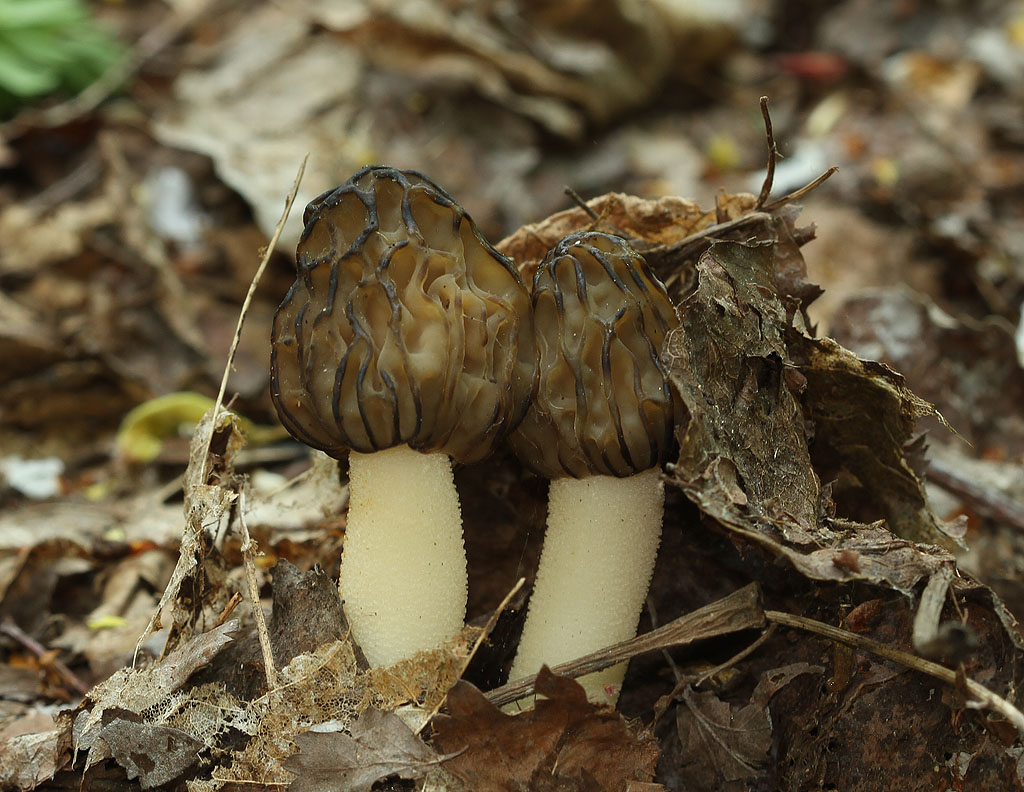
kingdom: Fungi
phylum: Ascomycota
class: Pezizomycetes
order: Pezizales
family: Morchellaceae
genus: Morchella
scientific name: Morchella semilibera
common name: hætte-morkel
